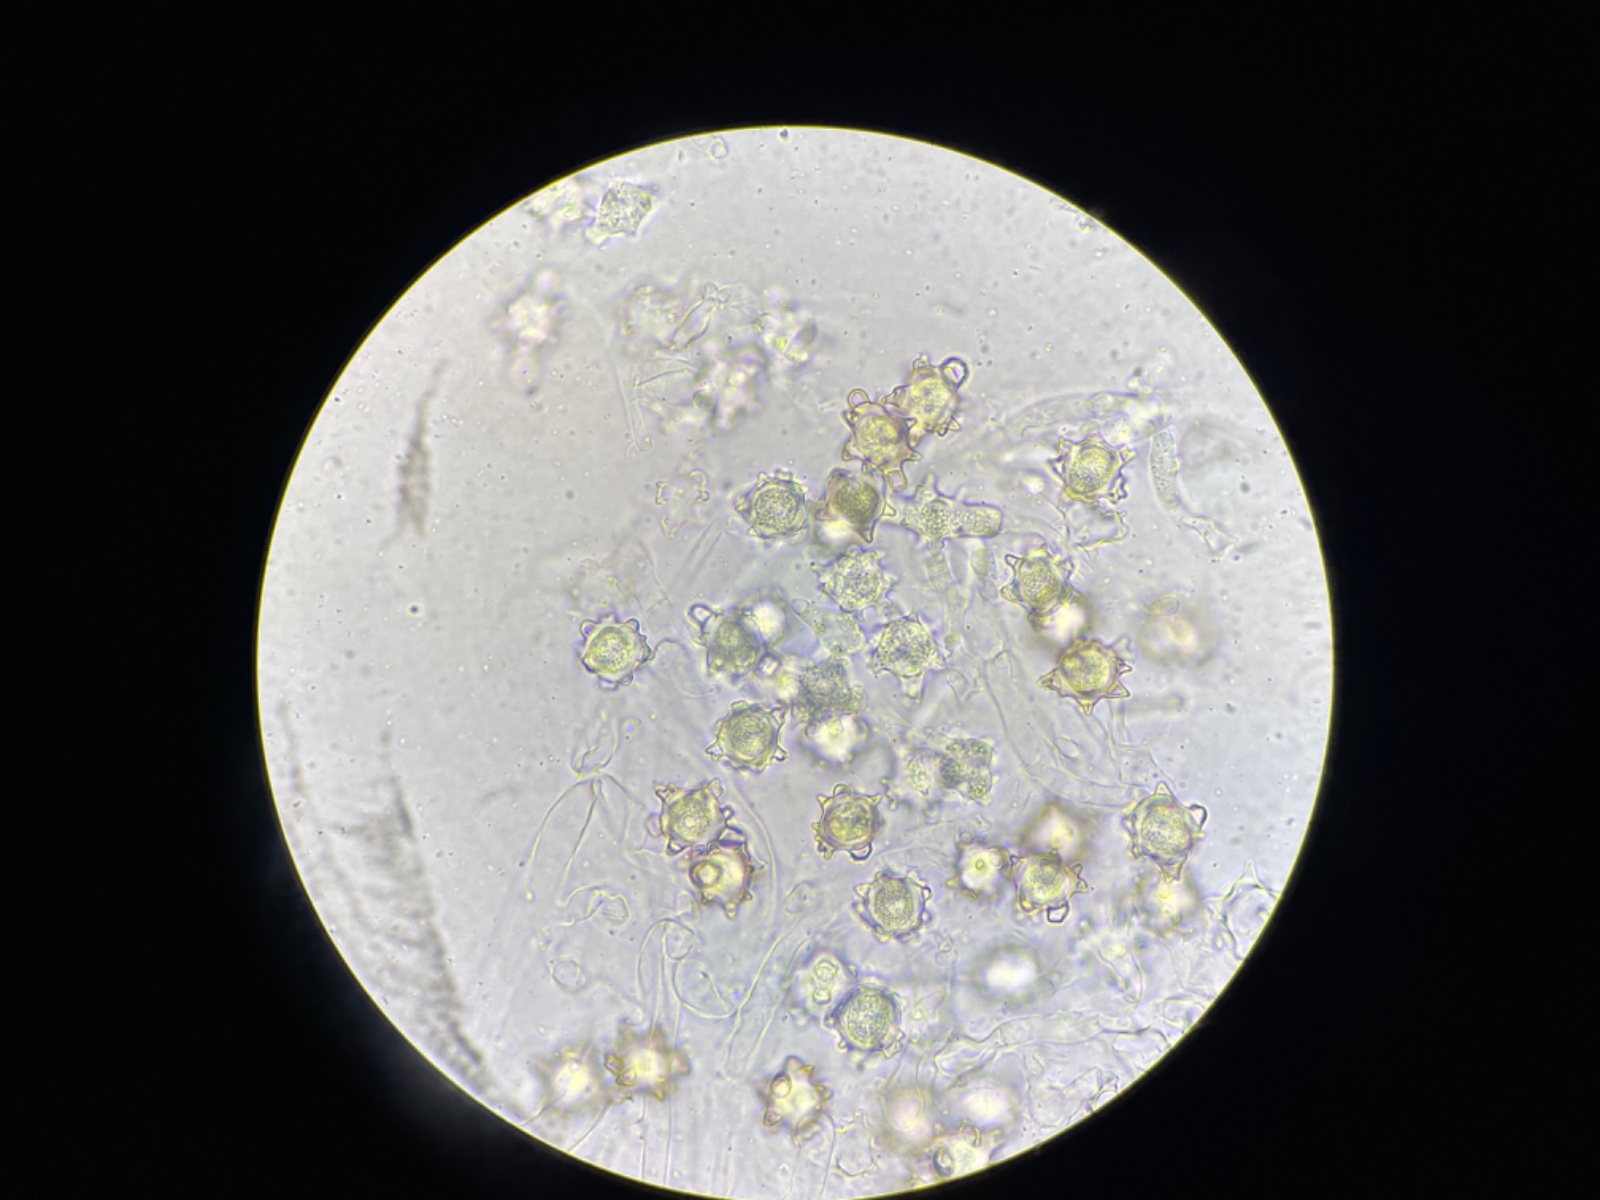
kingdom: Fungi
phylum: Basidiomycota
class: Agaricomycetes
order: Agaricales
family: Lyophyllaceae
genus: Asterophora
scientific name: Asterophora lycoperdoides
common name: brunpudret snyltehat
